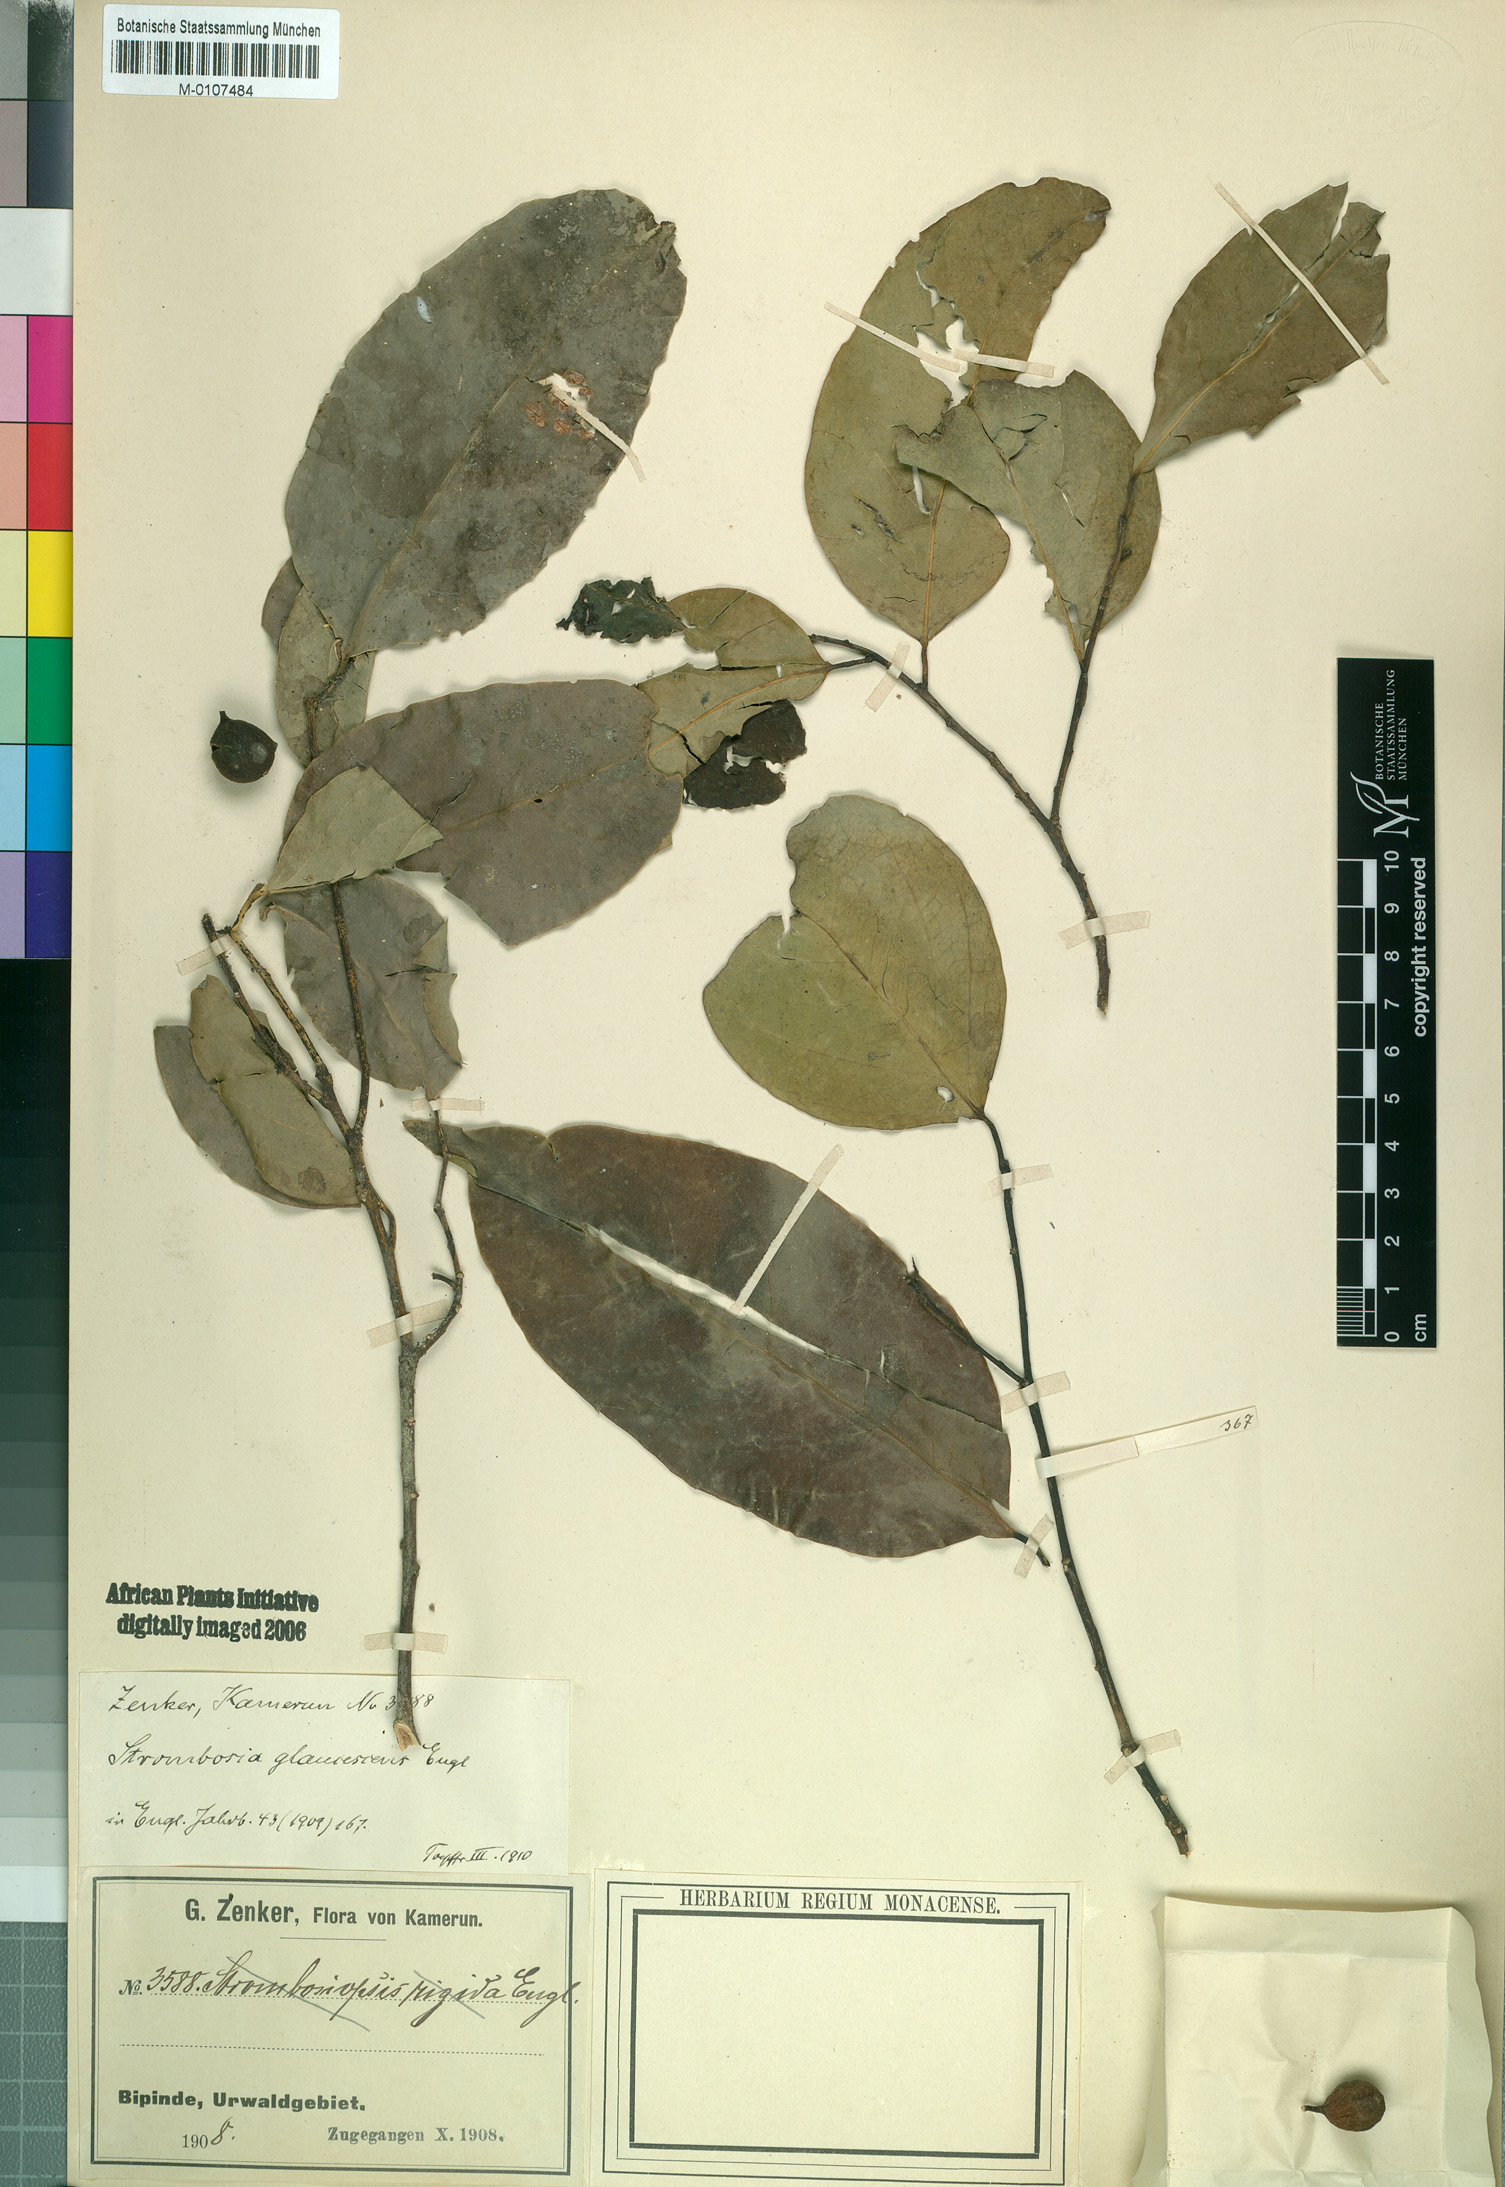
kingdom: Plantae
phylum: Tracheophyta
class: Magnoliopsida
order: Santalales
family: Strombosiaceae
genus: Strombosiopsis
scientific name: Strombosiopsis glaucescens
